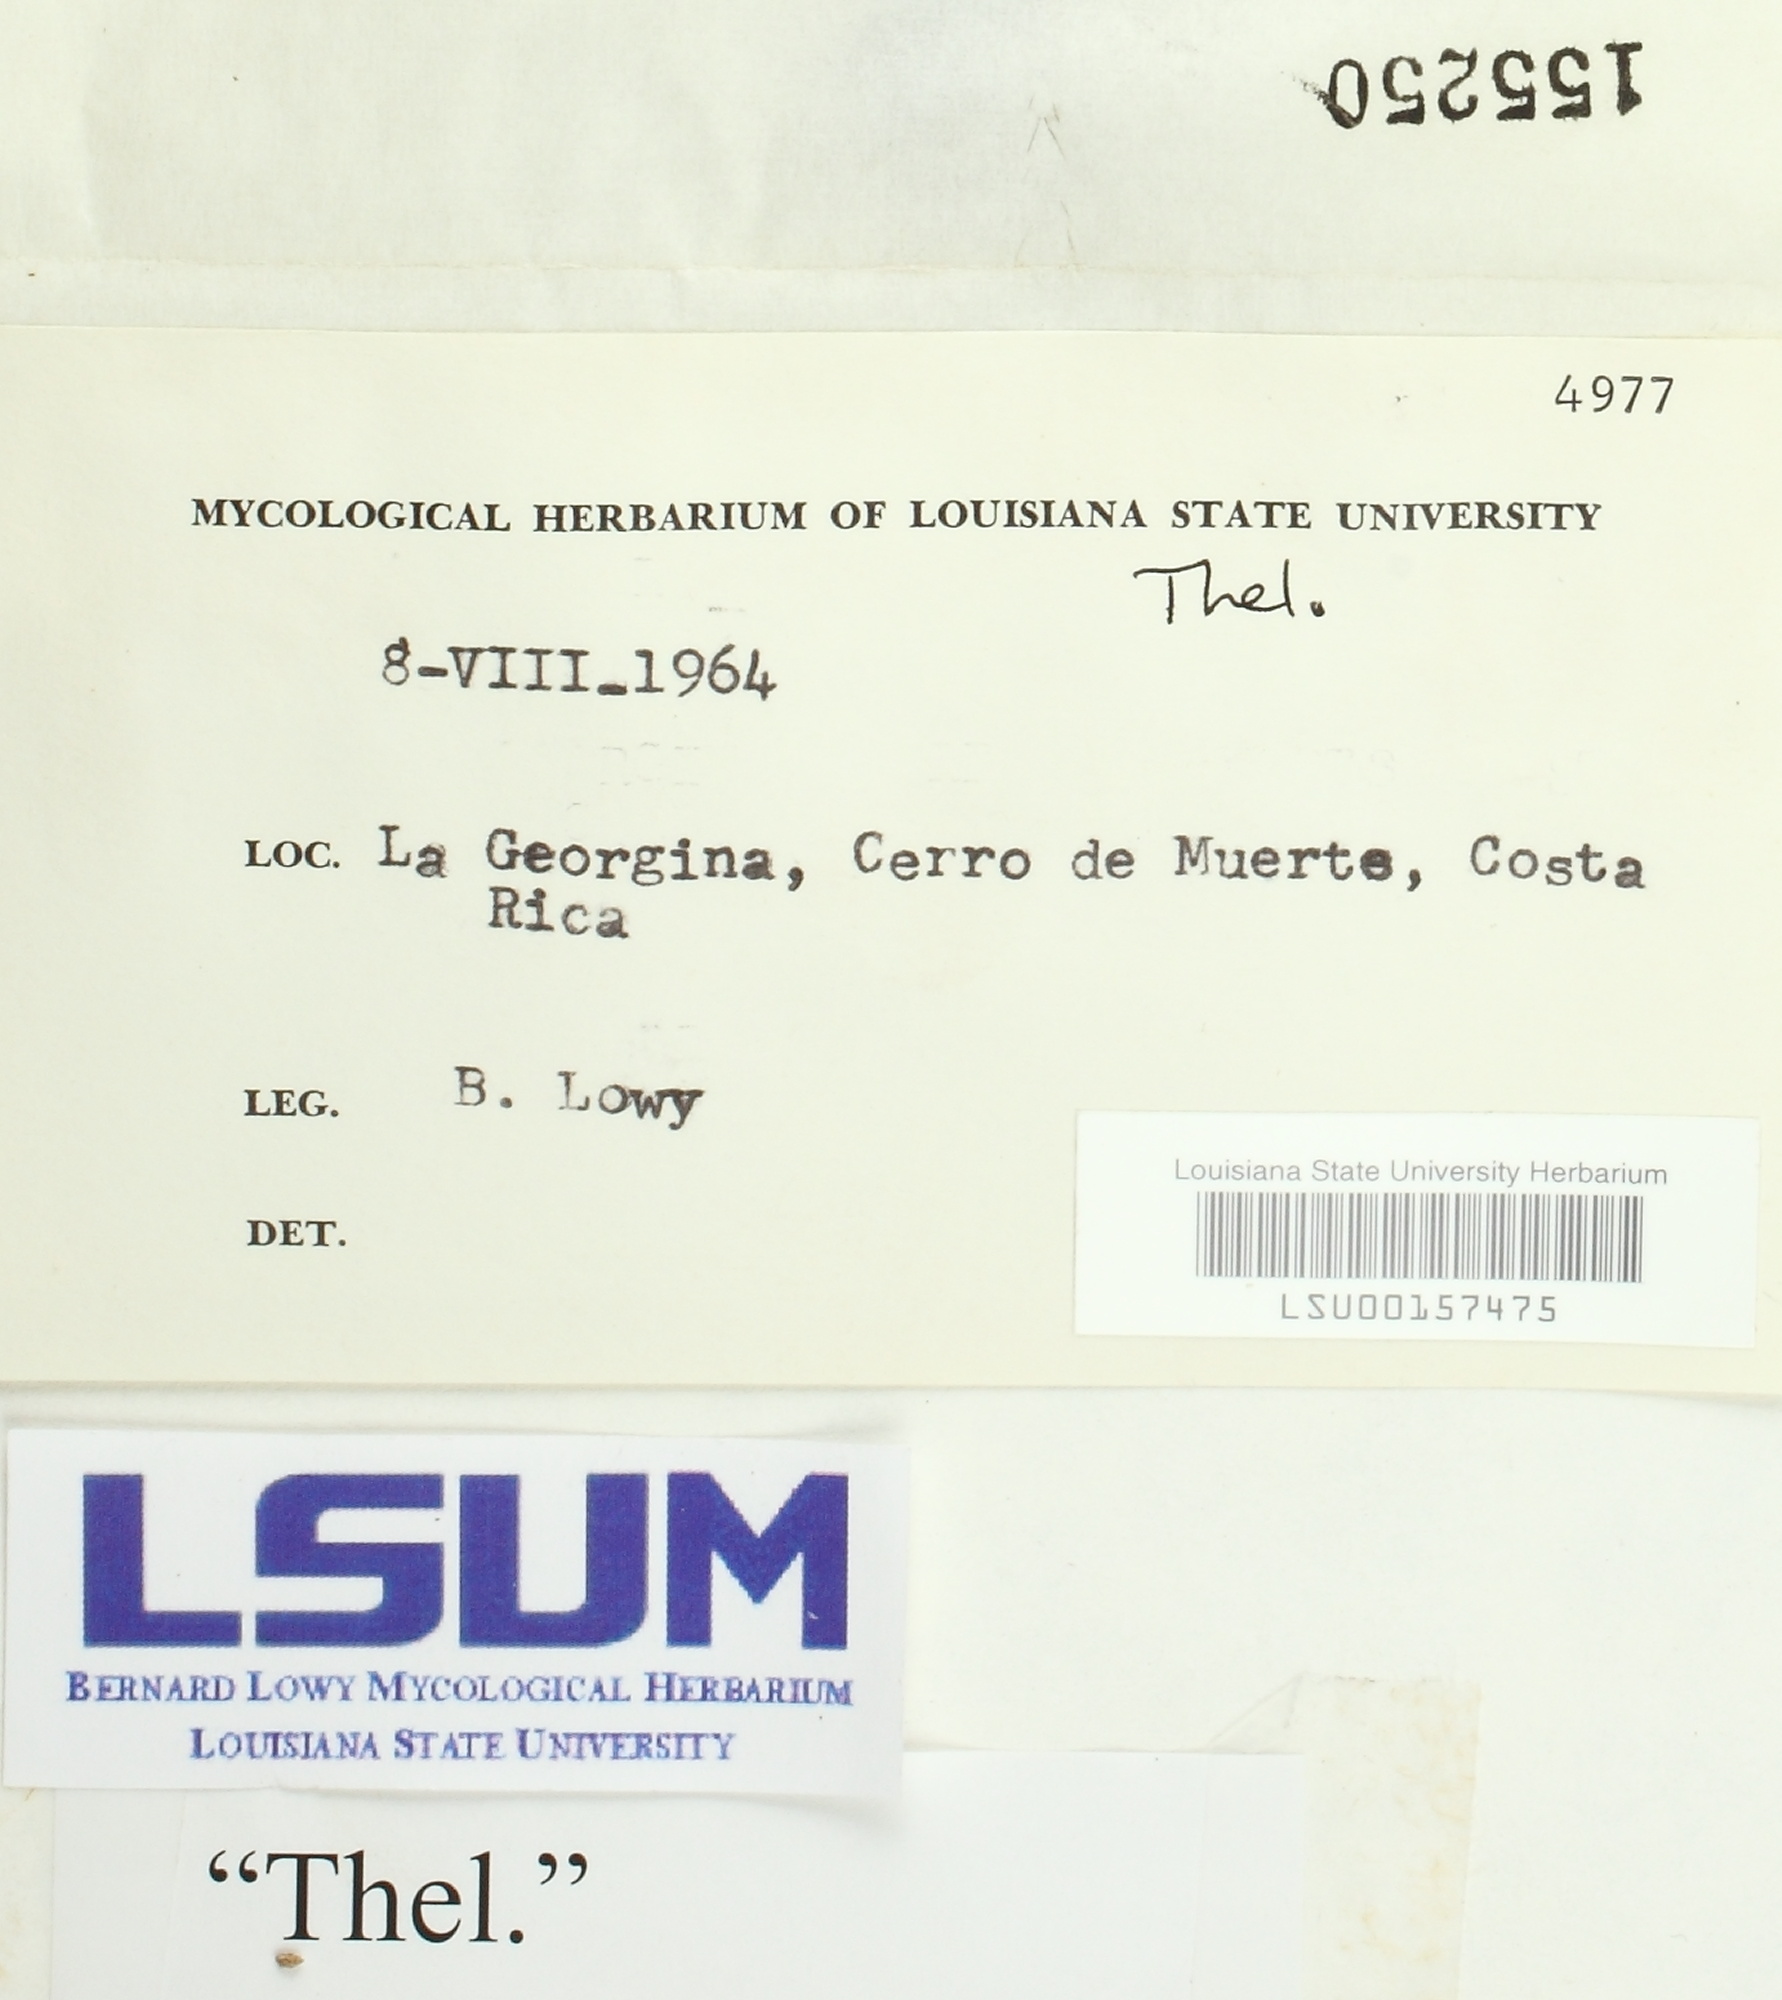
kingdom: Fungi
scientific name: Fungi
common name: Fungi
